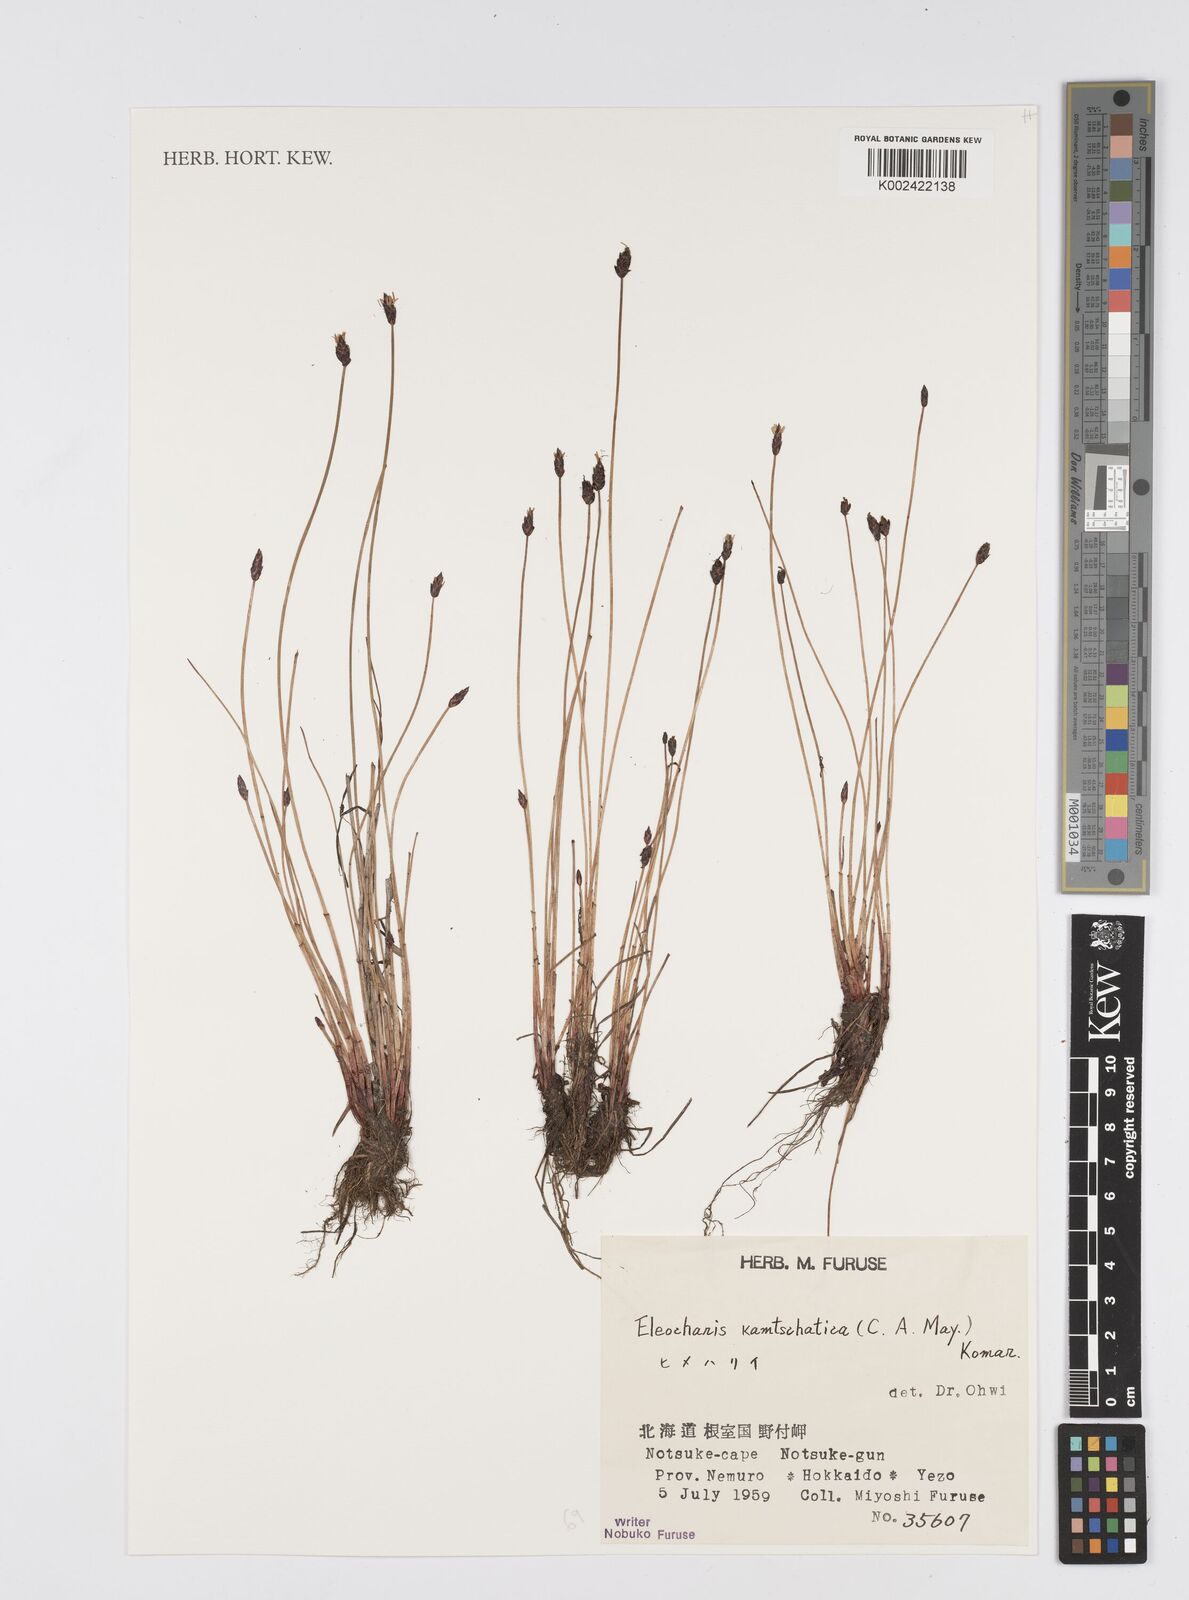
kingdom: Plantae
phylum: Tracheophyta
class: Liliopsida
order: Poales
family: Cyperaceae
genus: Eleocharis
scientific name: Eleocharis kamtschatica
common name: Kamchatka spikerush
